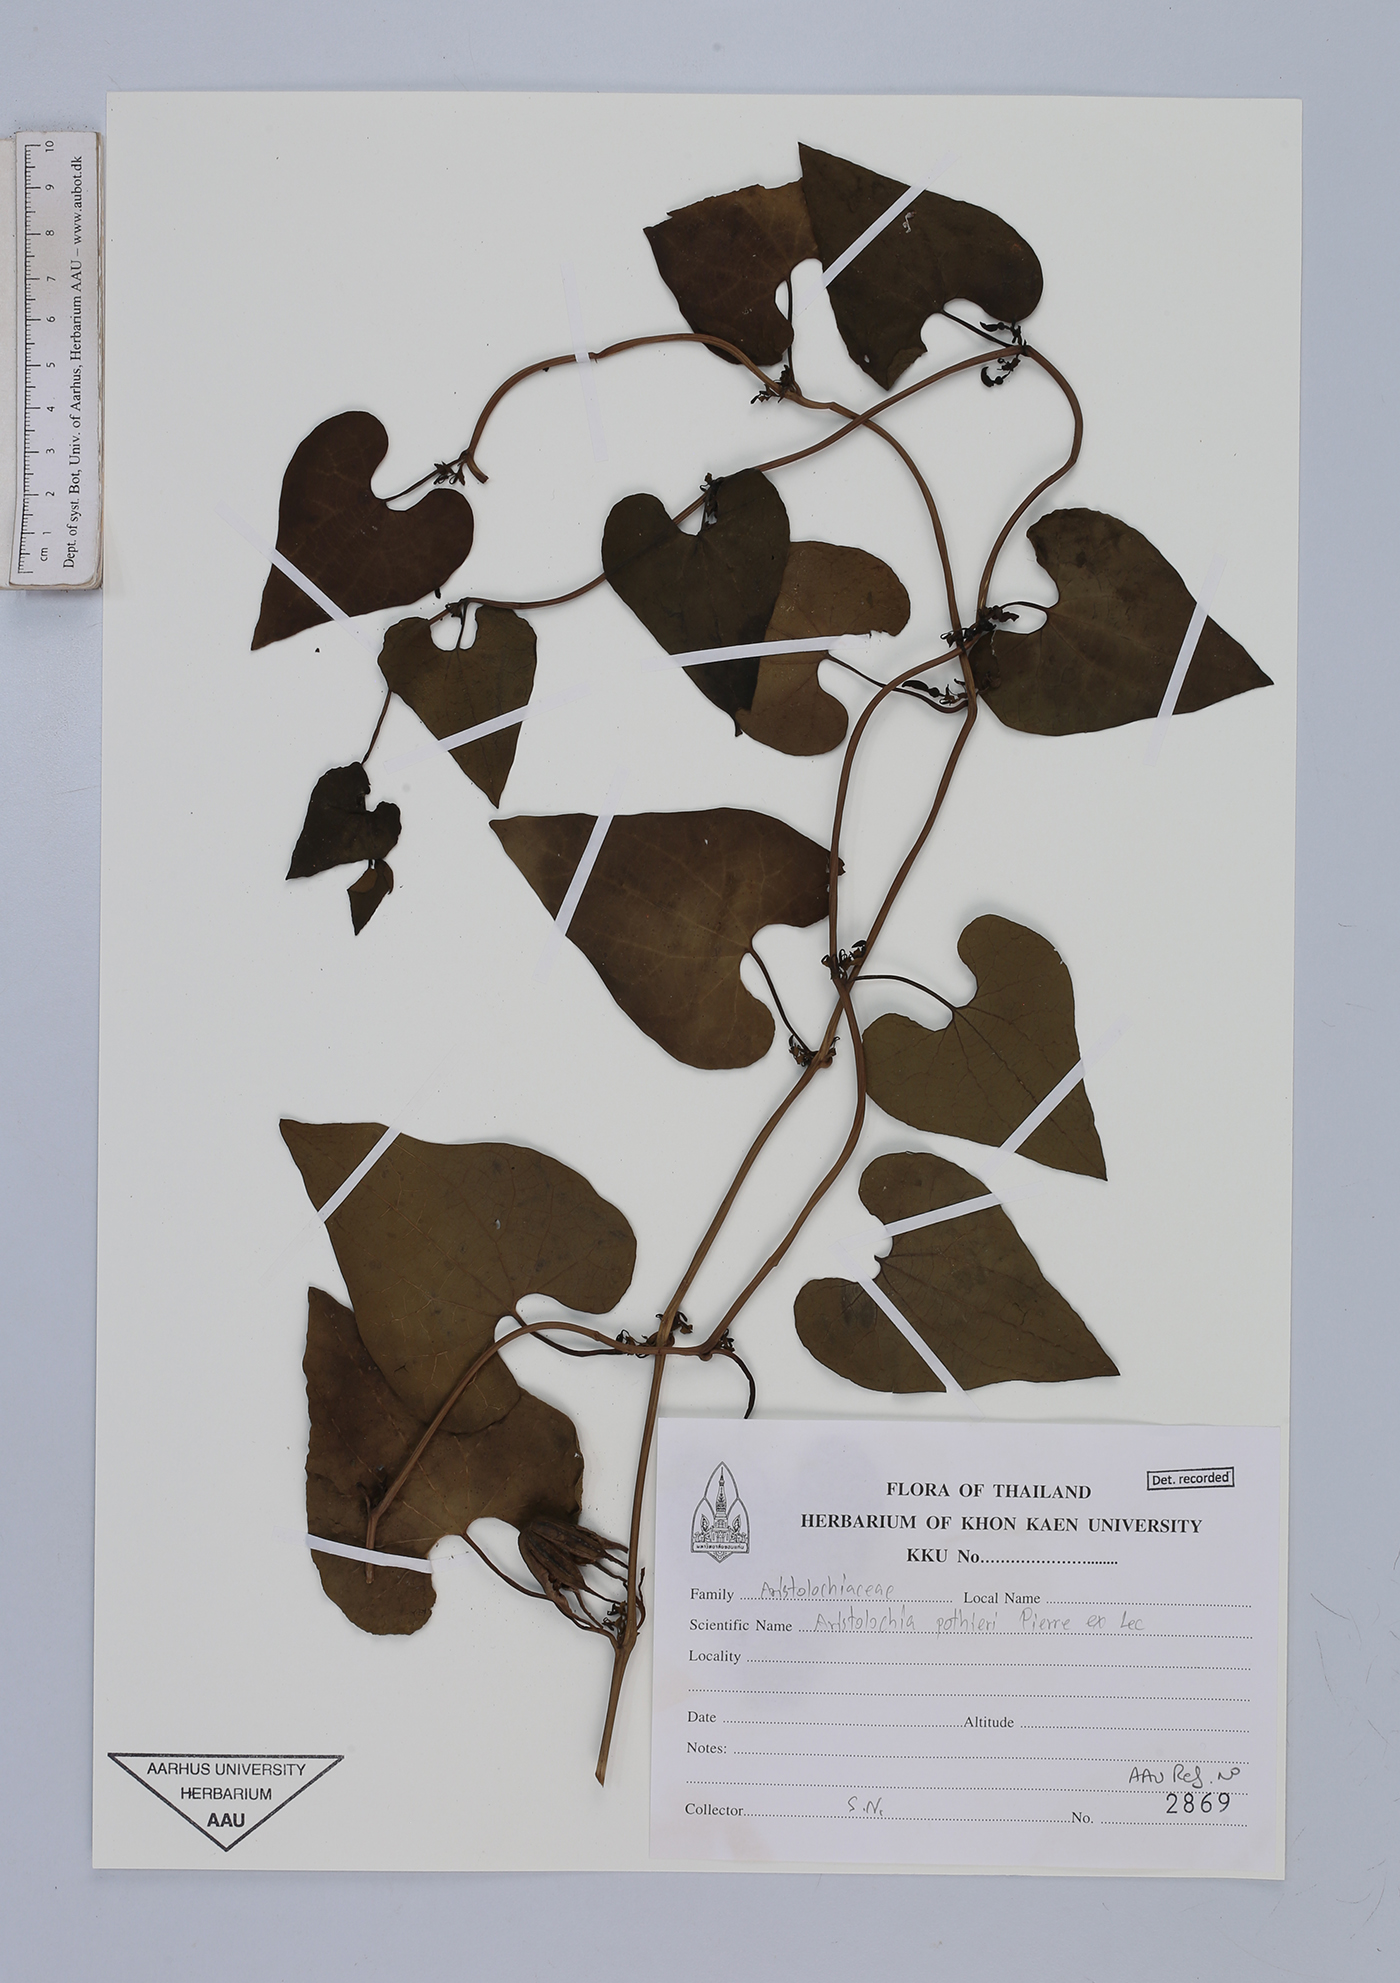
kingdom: Plantae
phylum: Tracheophyta
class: Magnoliopsida
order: Piperales
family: Aristolochiaceae
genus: Aristolochia
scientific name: Aristolochia pothieri
